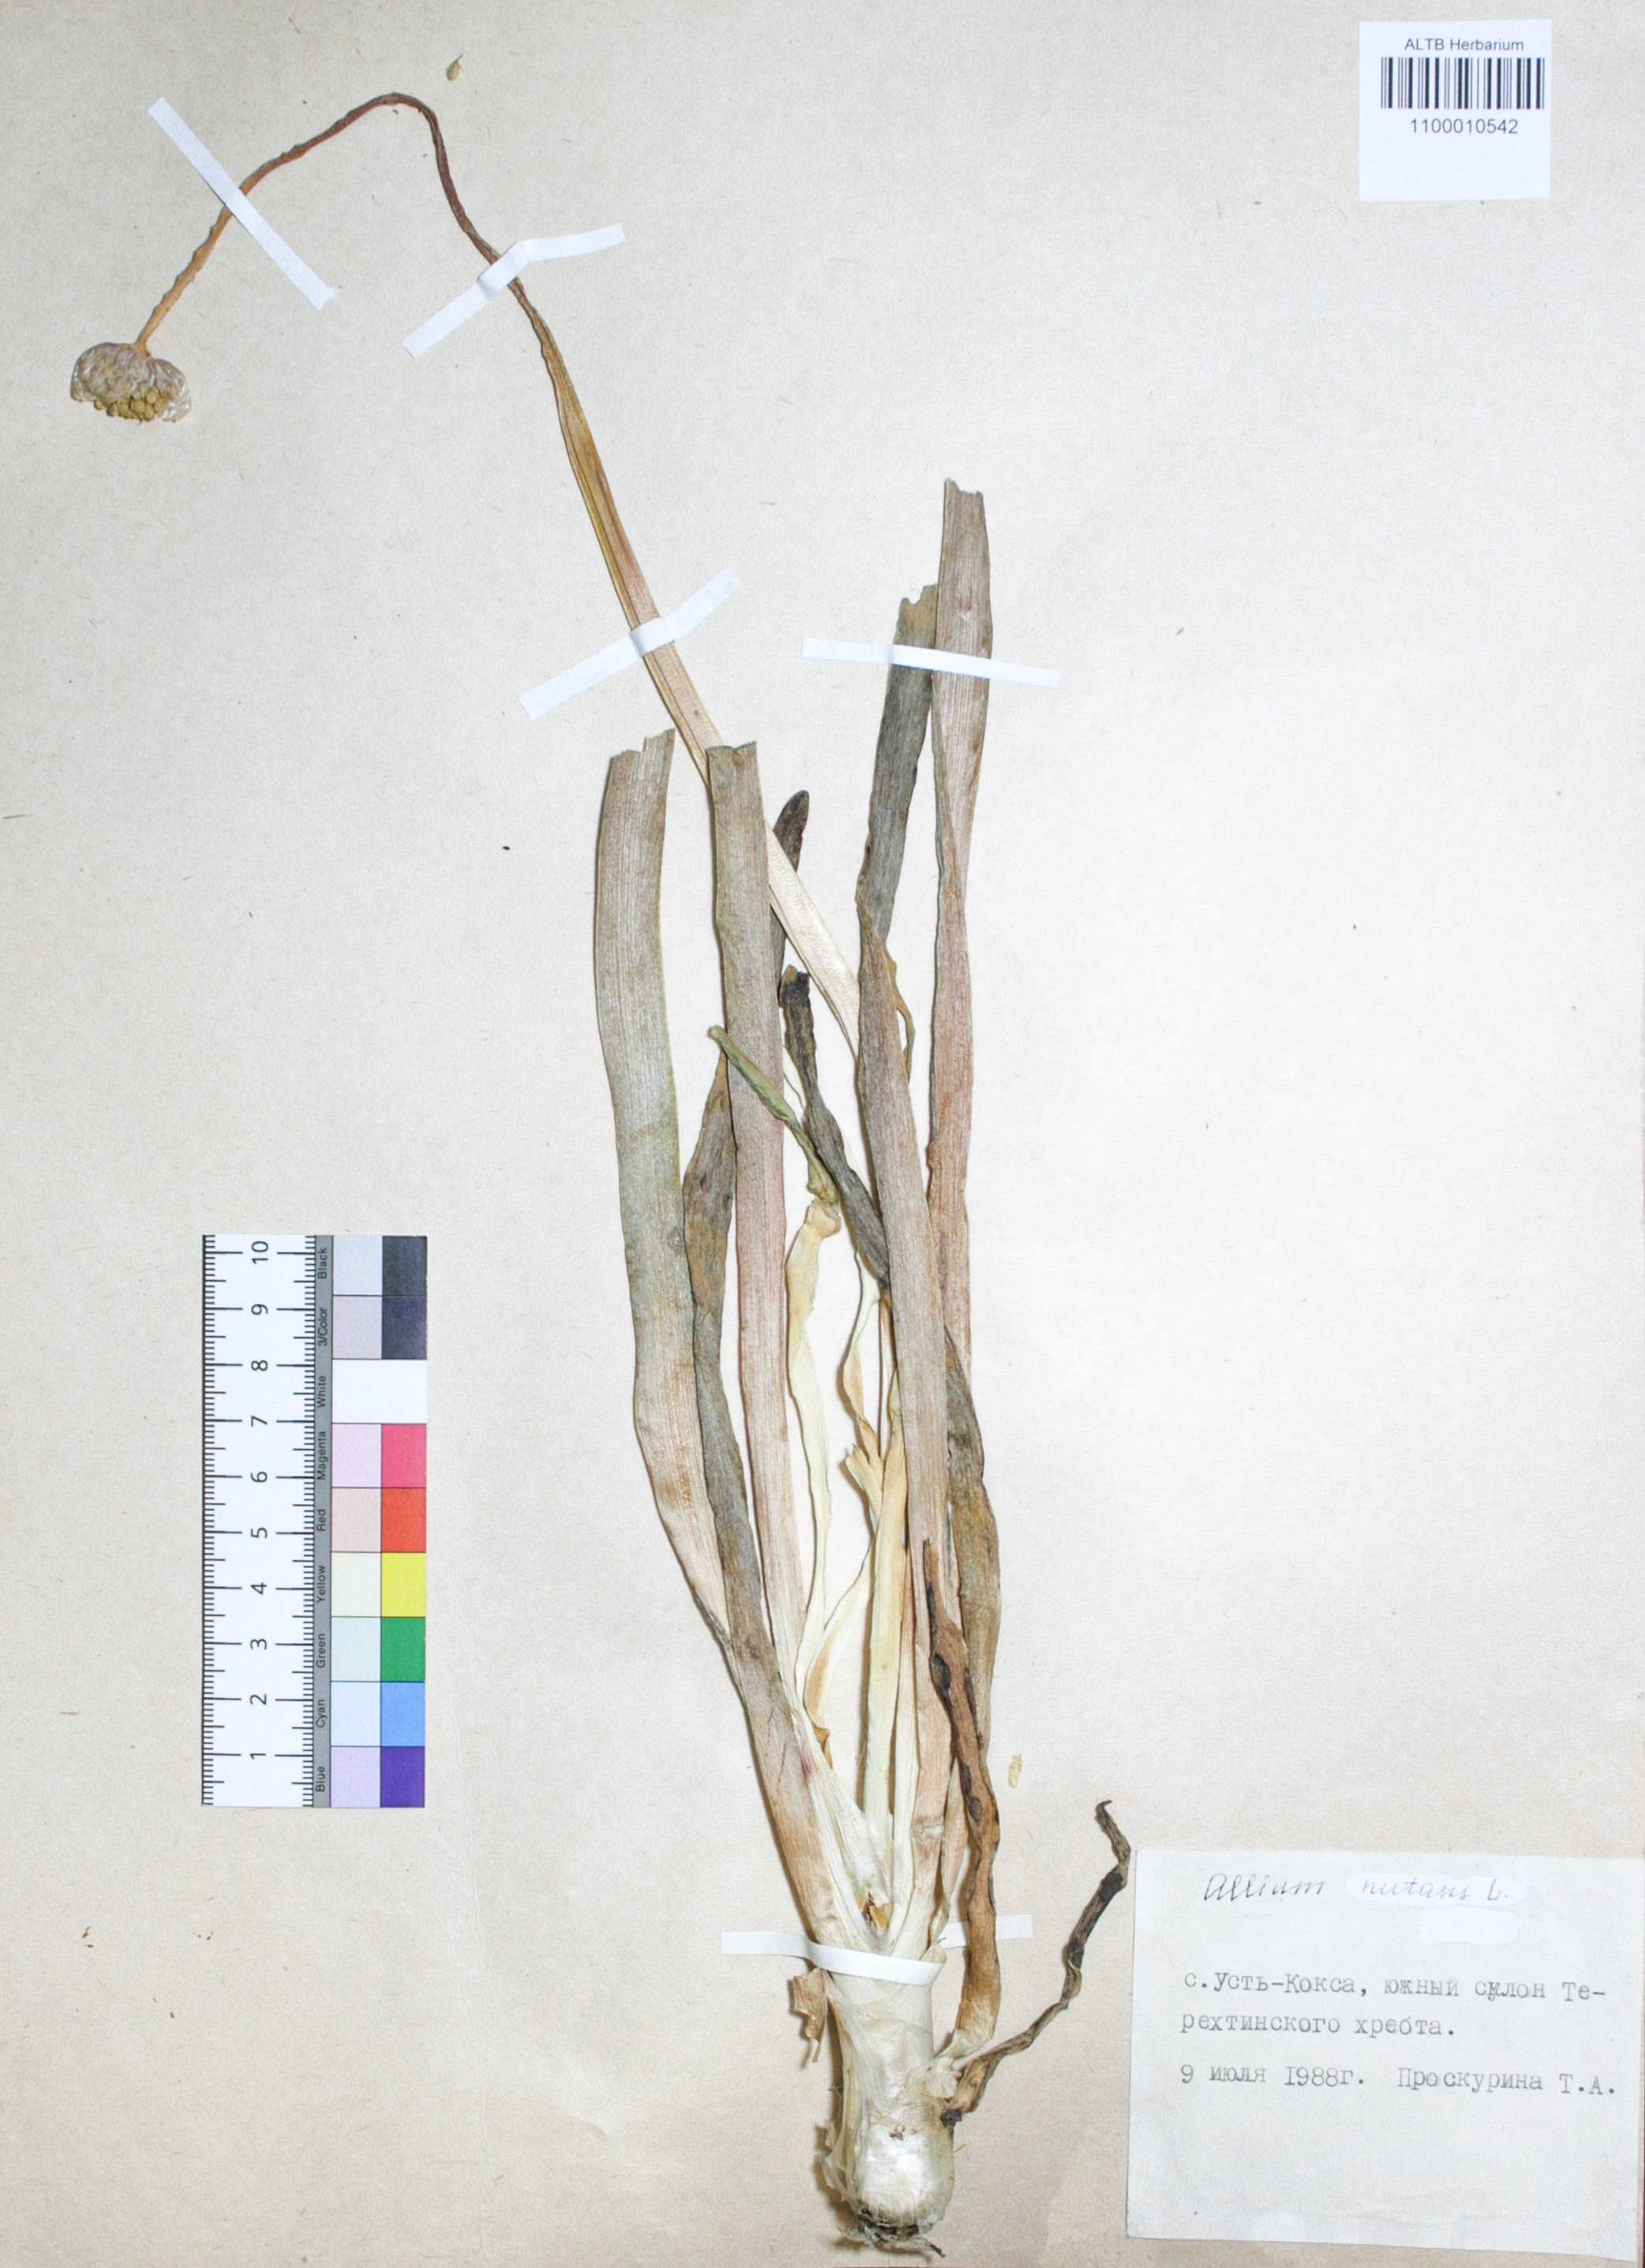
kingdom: Plantae
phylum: Tracheophyta
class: Liliopsida
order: Asparagales
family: Amaryllidaceae
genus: Allium
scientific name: Allium nutans
